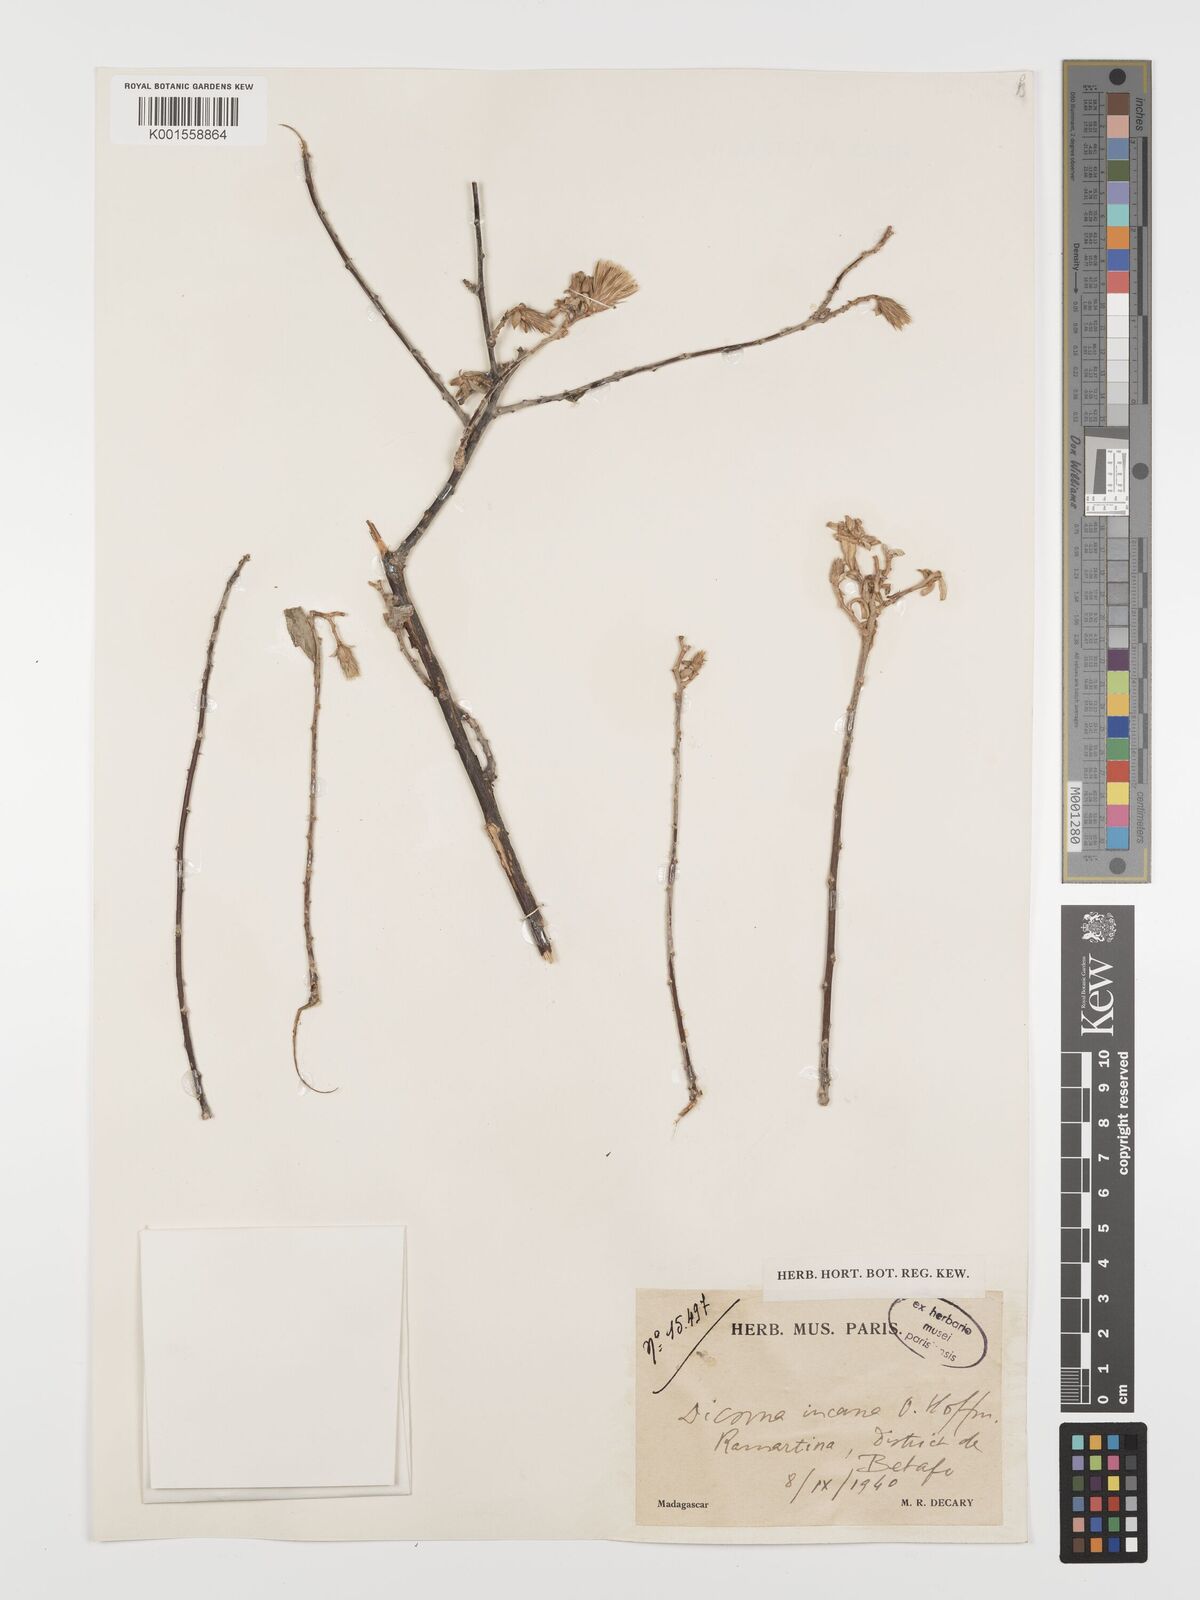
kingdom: Plantae
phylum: Tracheophyta
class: Magnoliopsida
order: Asterales
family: Asteraceae
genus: Dicoma
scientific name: Dicoma incana
